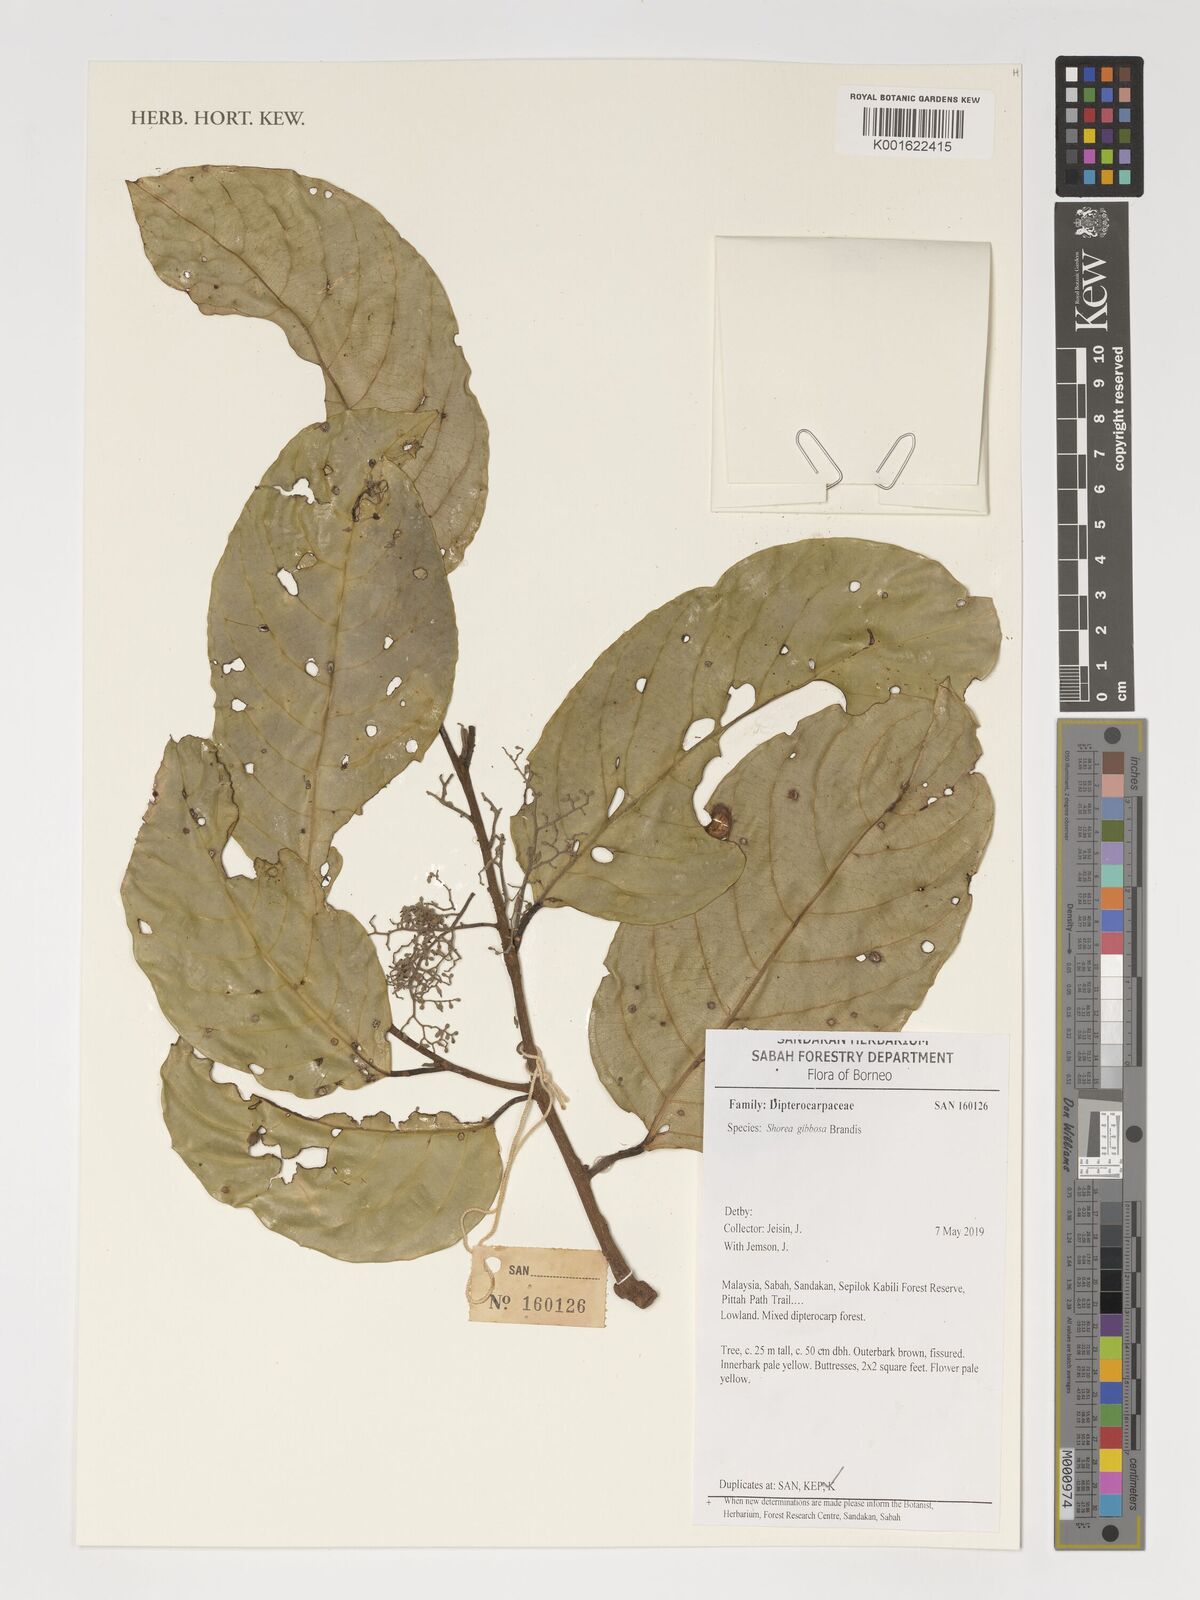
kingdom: Plantae
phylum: Tracheophyta
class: Magnoliopsida
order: Malvales
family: Dipterocarpaceae
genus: Shorea
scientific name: Shorea gibbosa
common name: Yellow meranti
